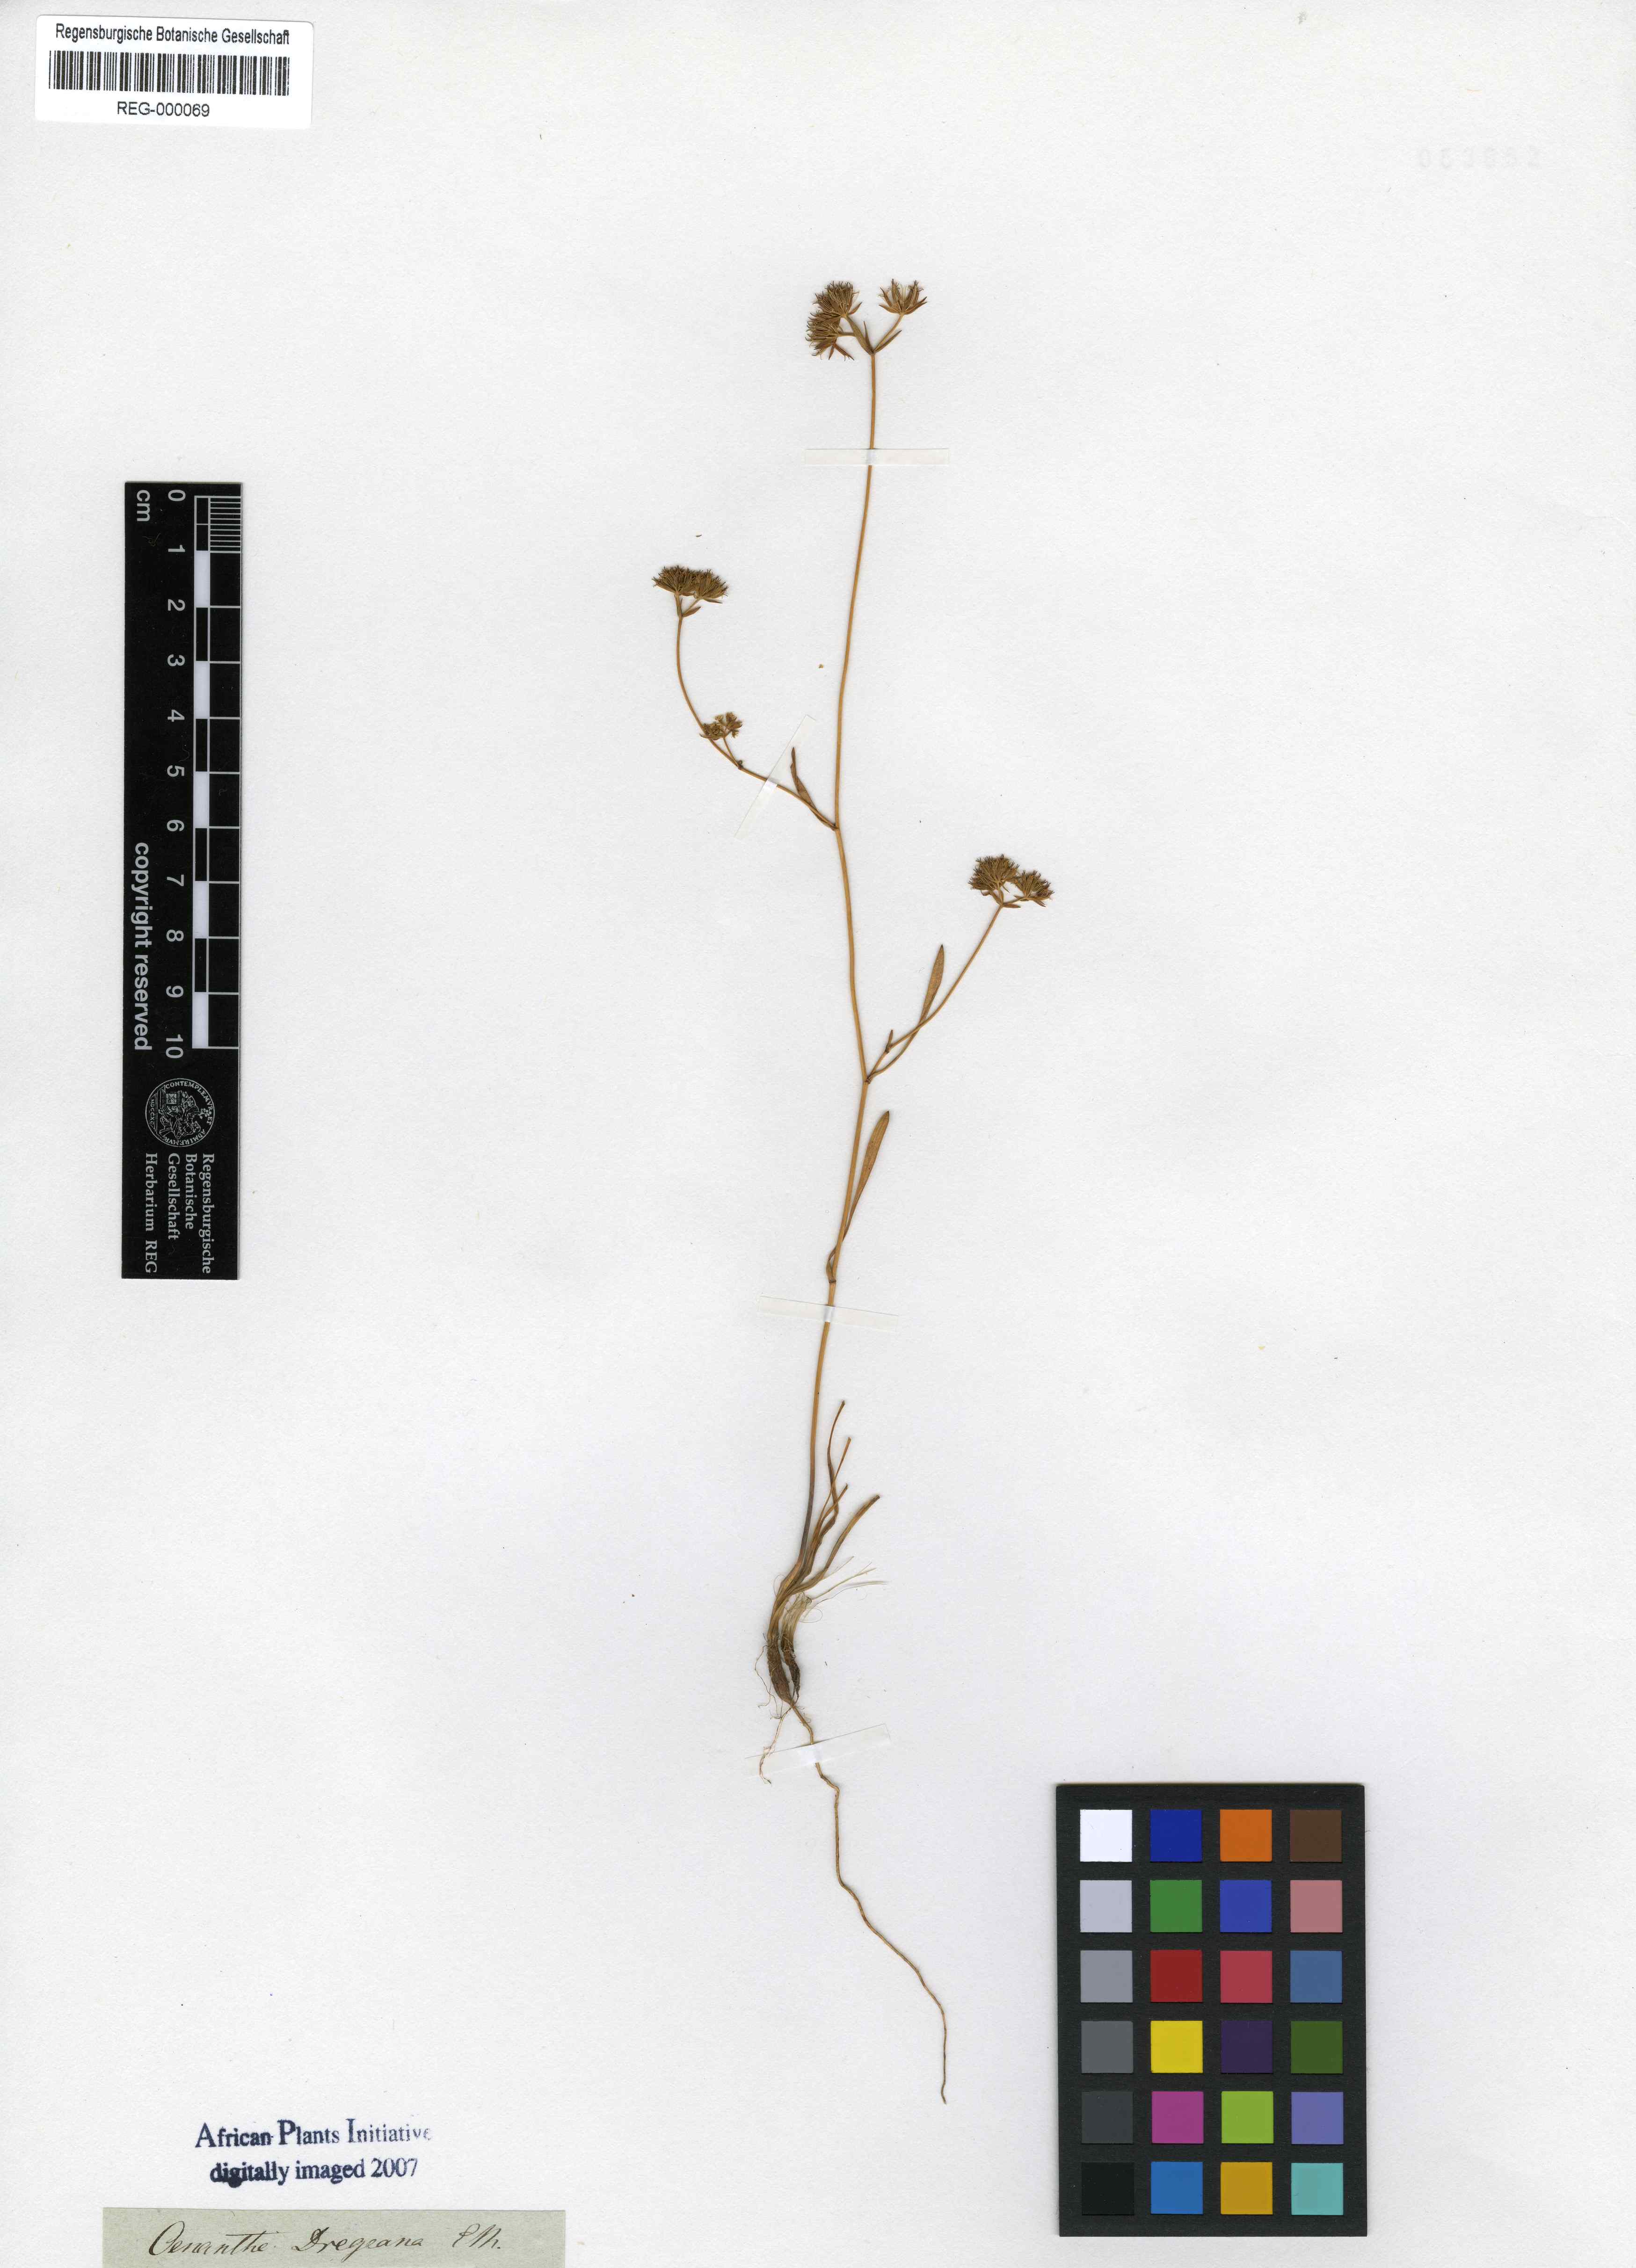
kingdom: Plantae
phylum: Tracheophyta
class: Magnoliopsida
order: Apiales
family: Apiaceae
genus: Itasina
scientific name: Itasina filifolia
